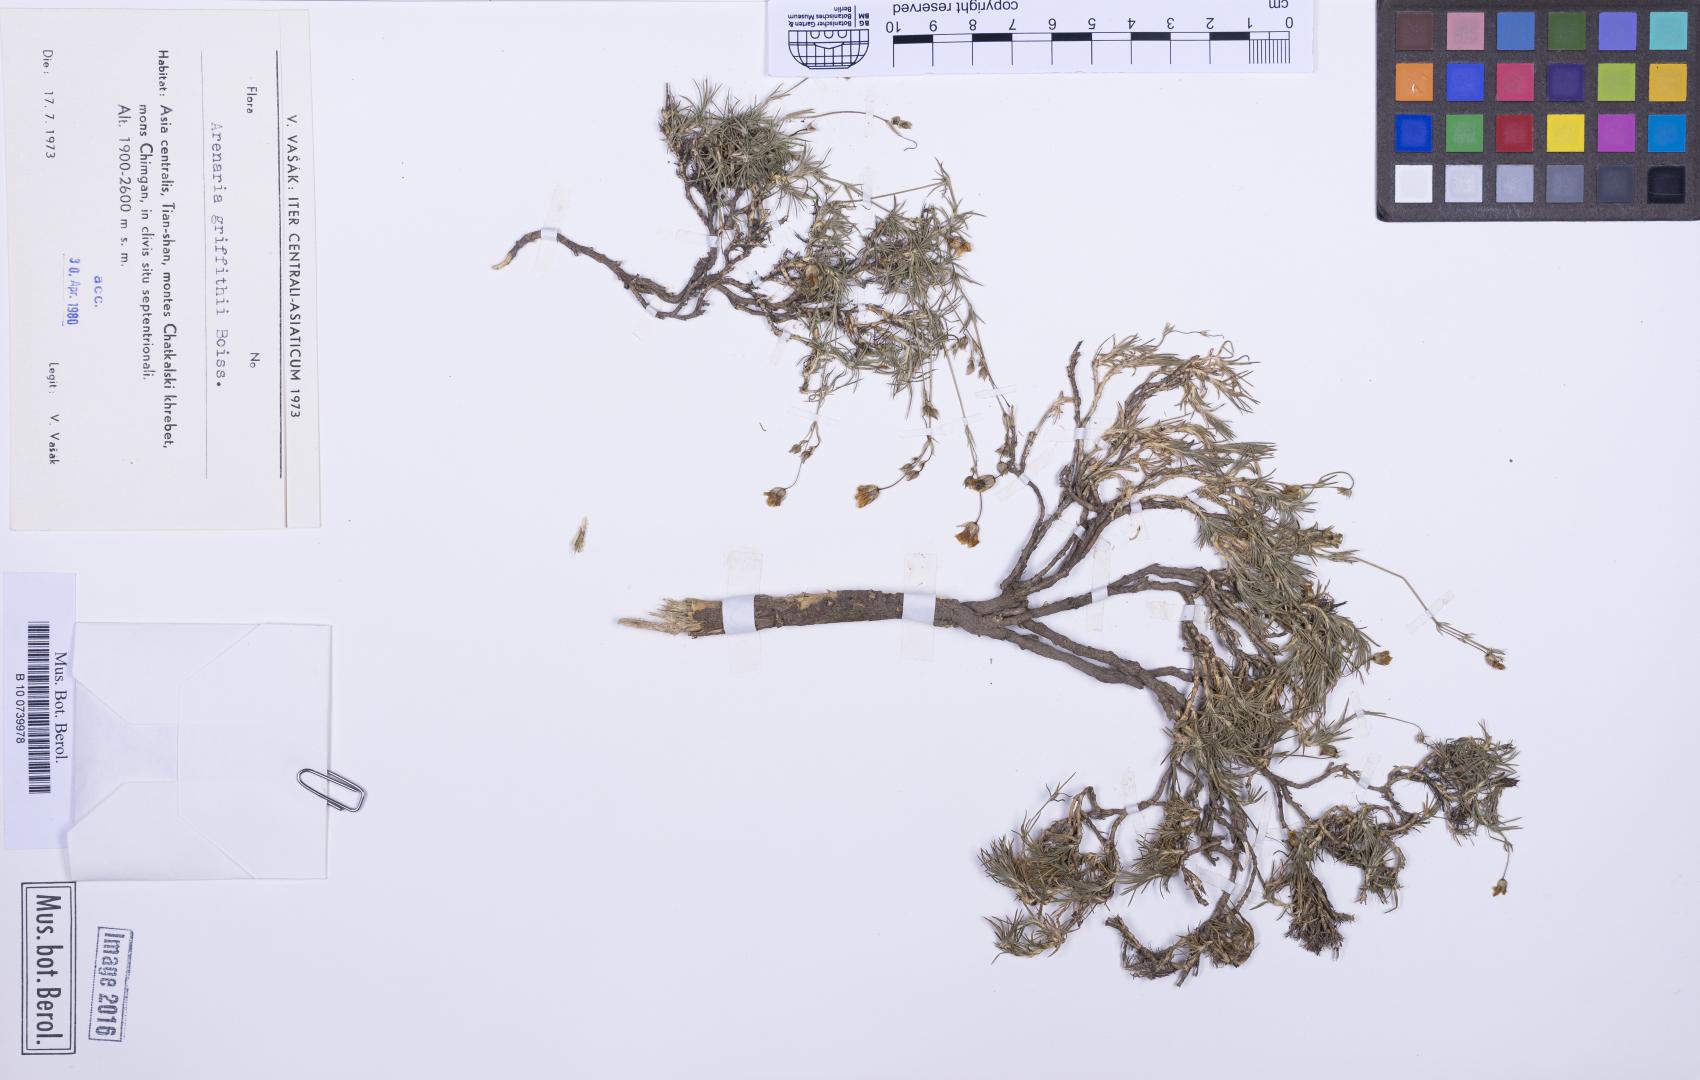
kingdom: Plantae
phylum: Tracheophyta
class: Magnoliopsida
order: Caryophyllales
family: Caryophyllaceae
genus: Eremogone
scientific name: Eremogone griffithii
